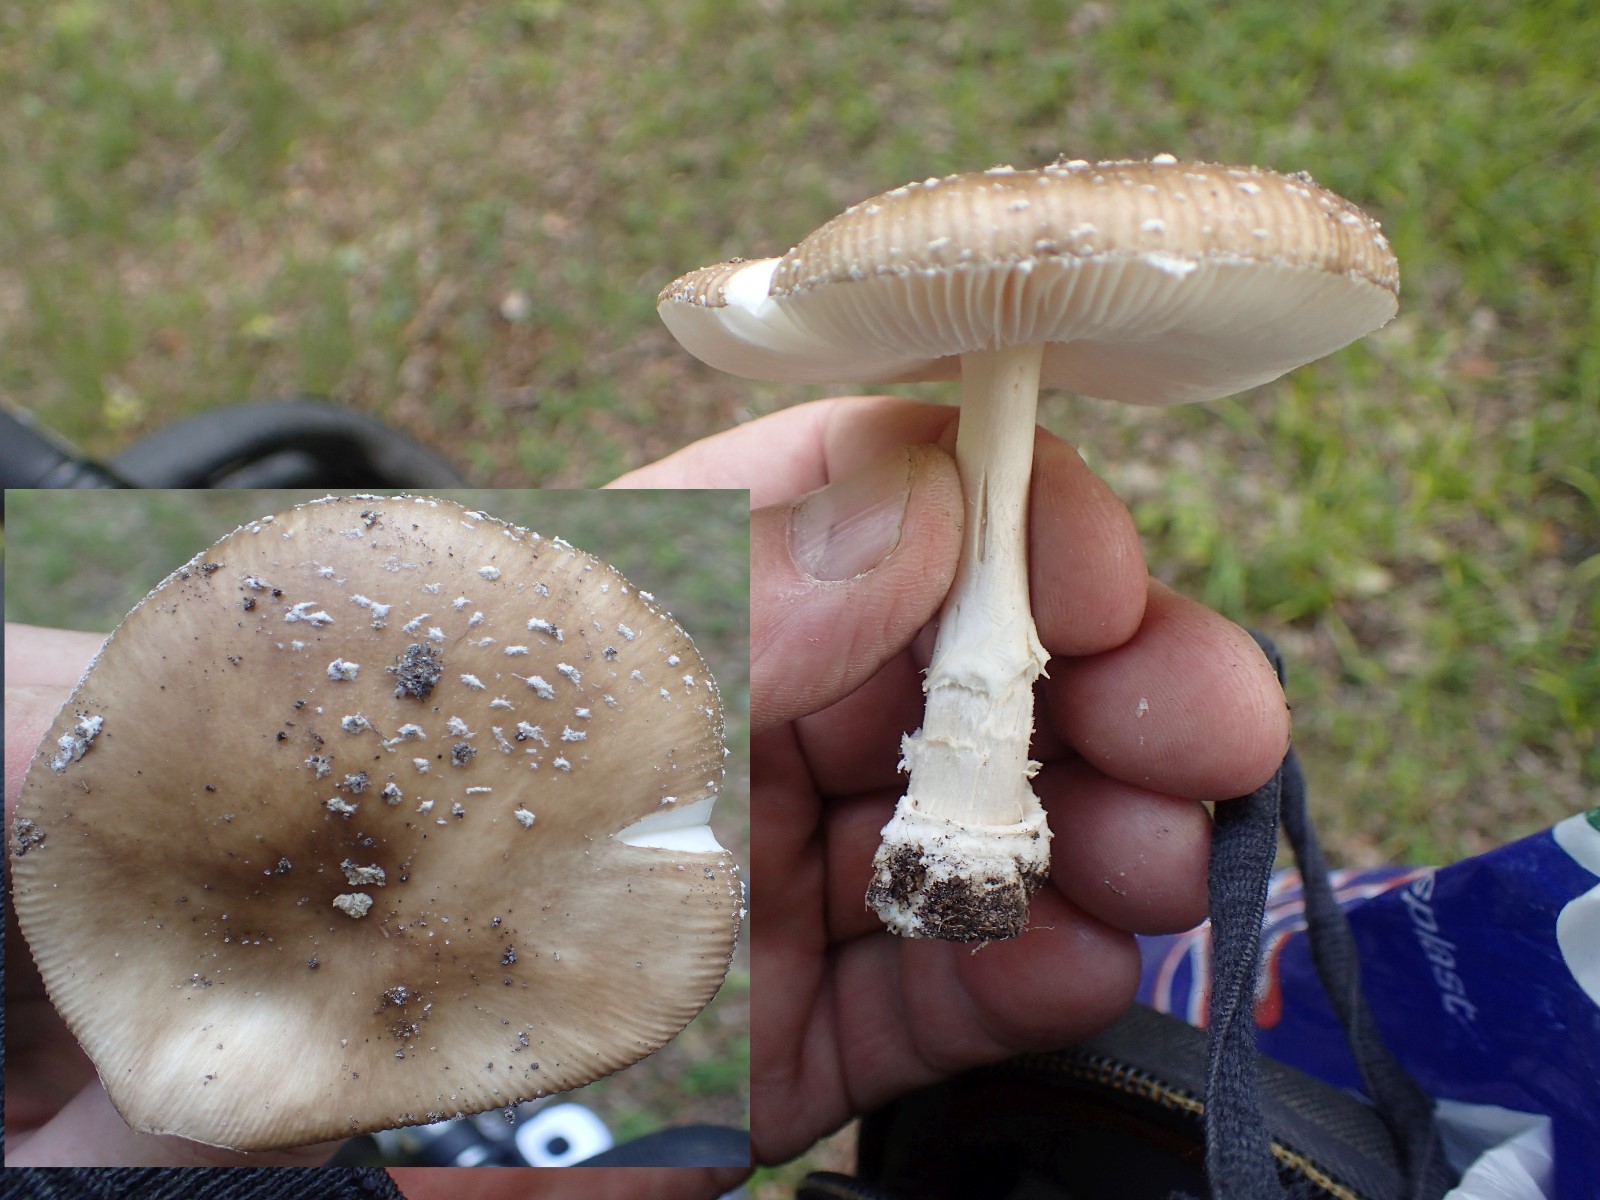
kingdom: Fungi
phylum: Basidiomycota
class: Agaricomycetes
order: Agaricales
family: Amanitaceae
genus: Amanita
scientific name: Amanita pantherina
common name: panter-fluesvamp
